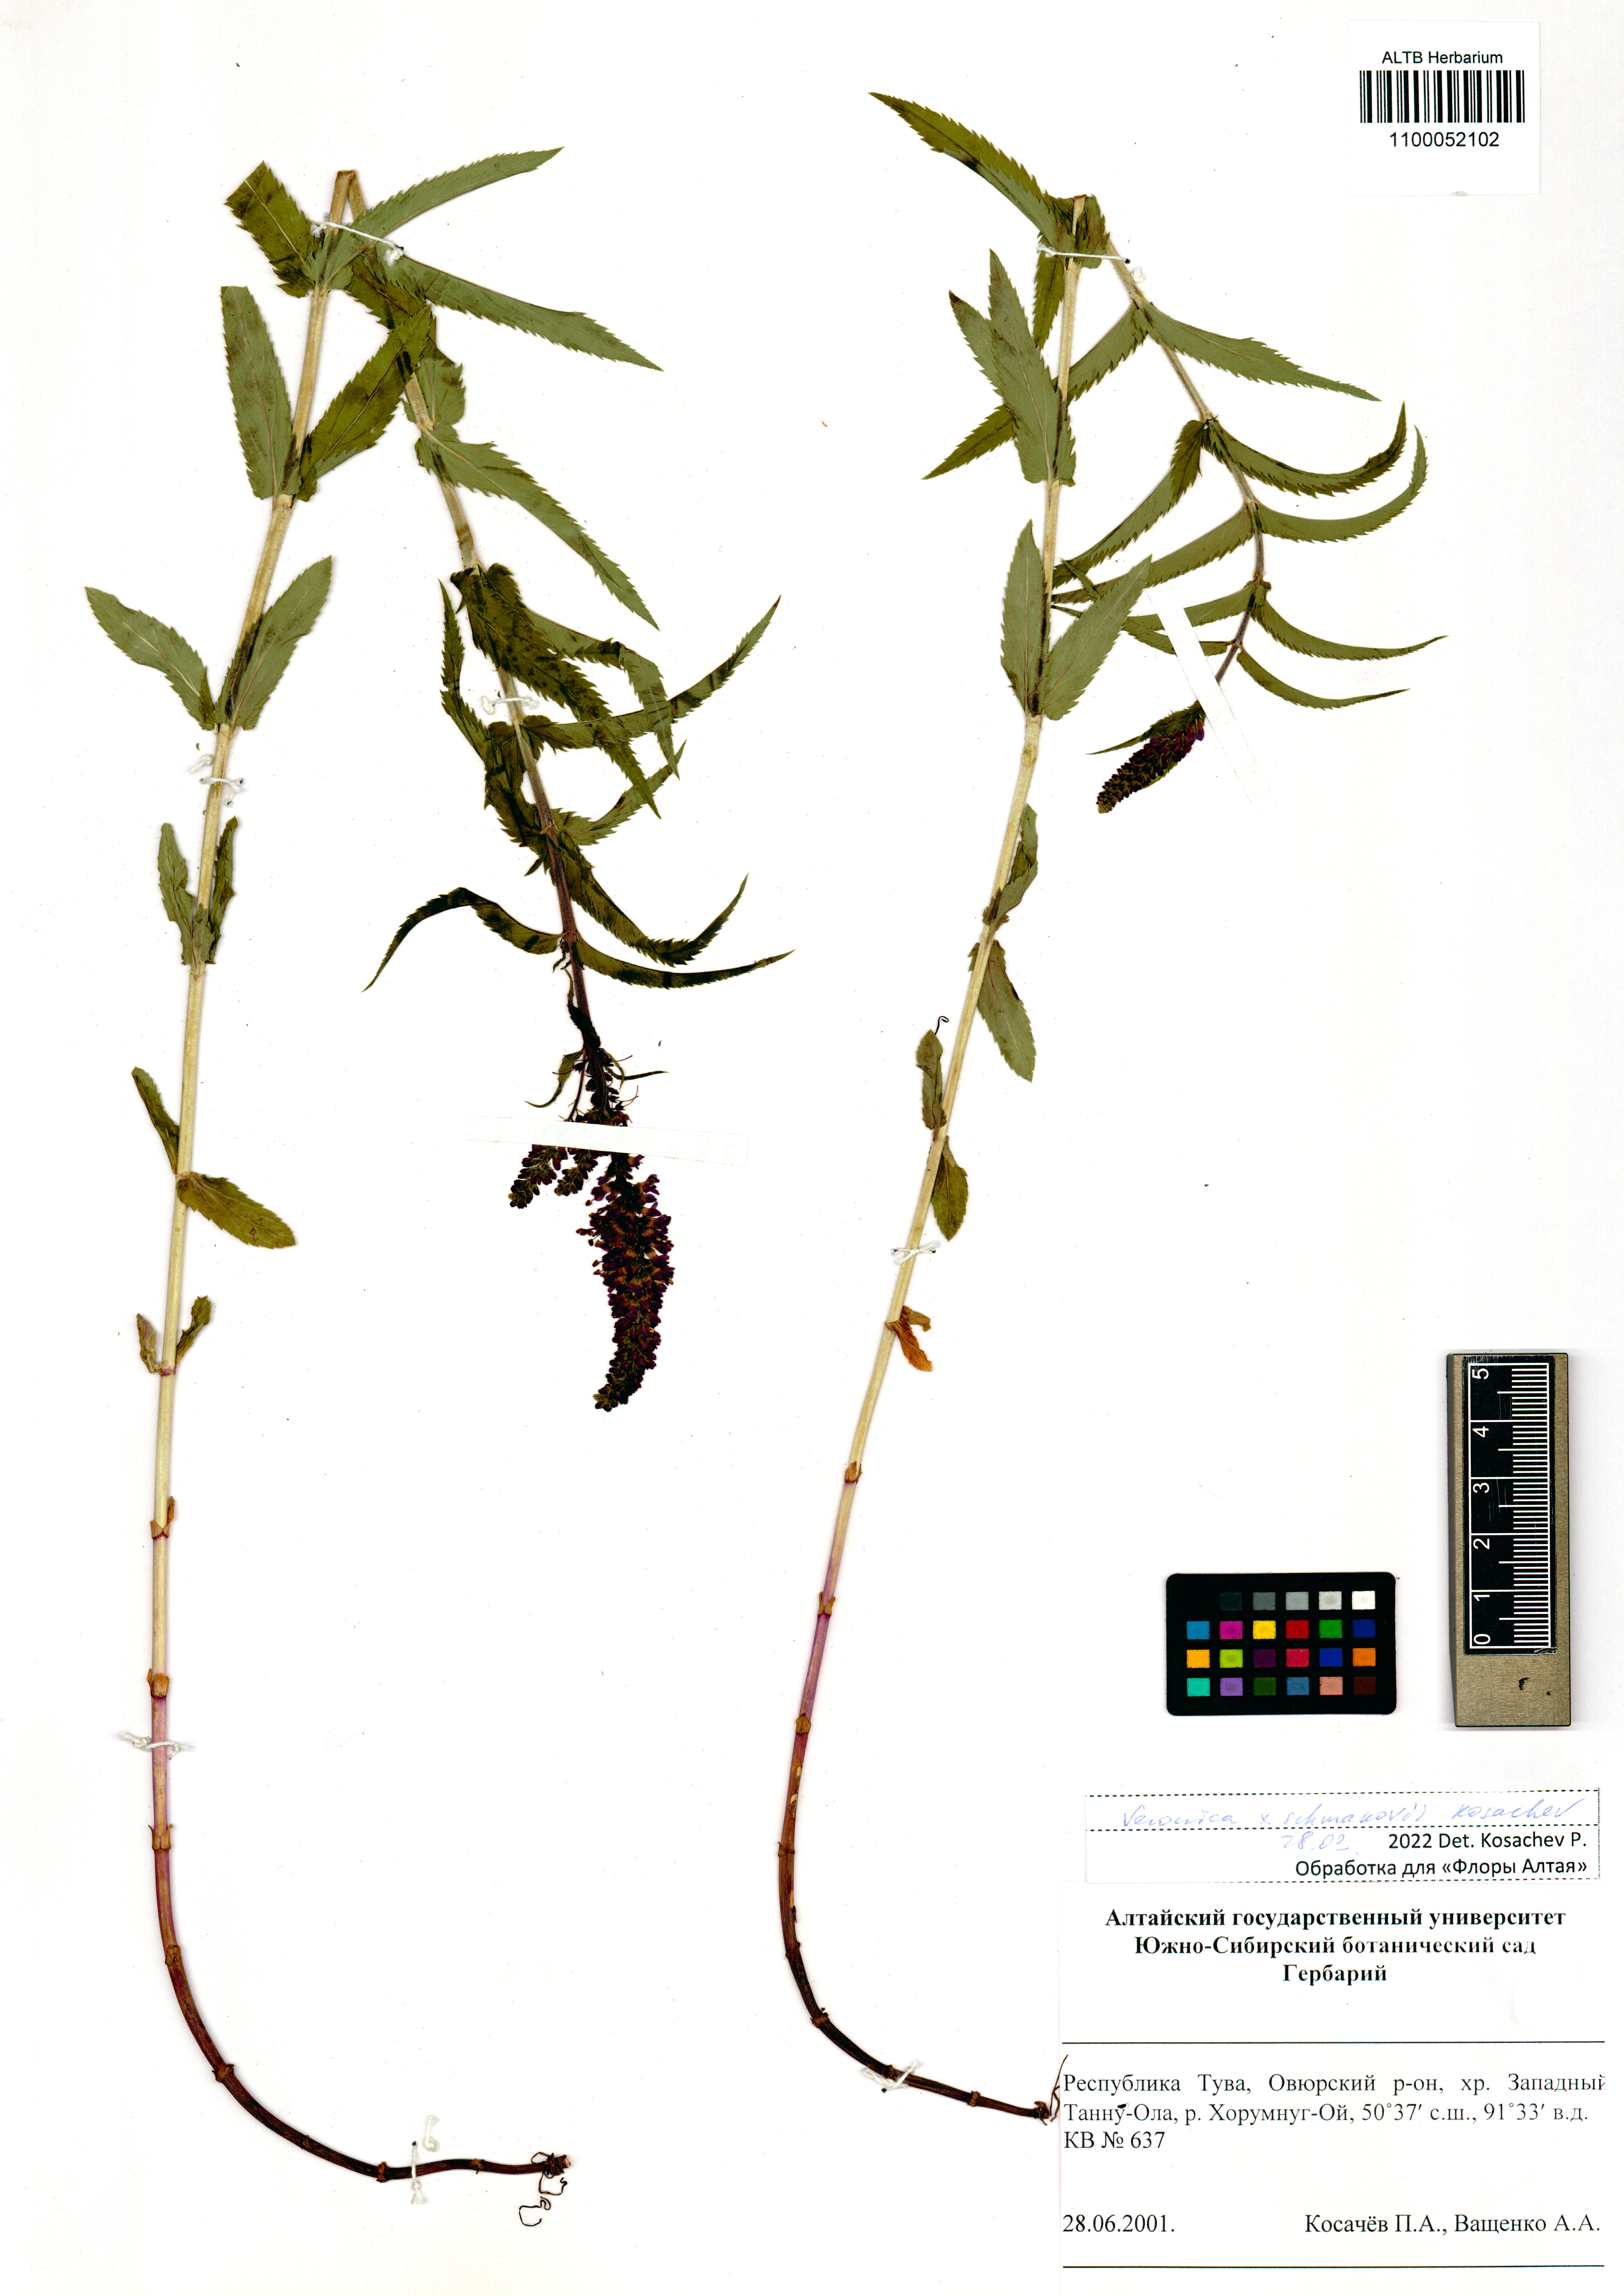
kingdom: Plantae
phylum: Tracheophyta
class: Magnoliopsida
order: Lamiales
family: Plantaginaceae
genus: Veronica
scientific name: Veronica schmakovii
